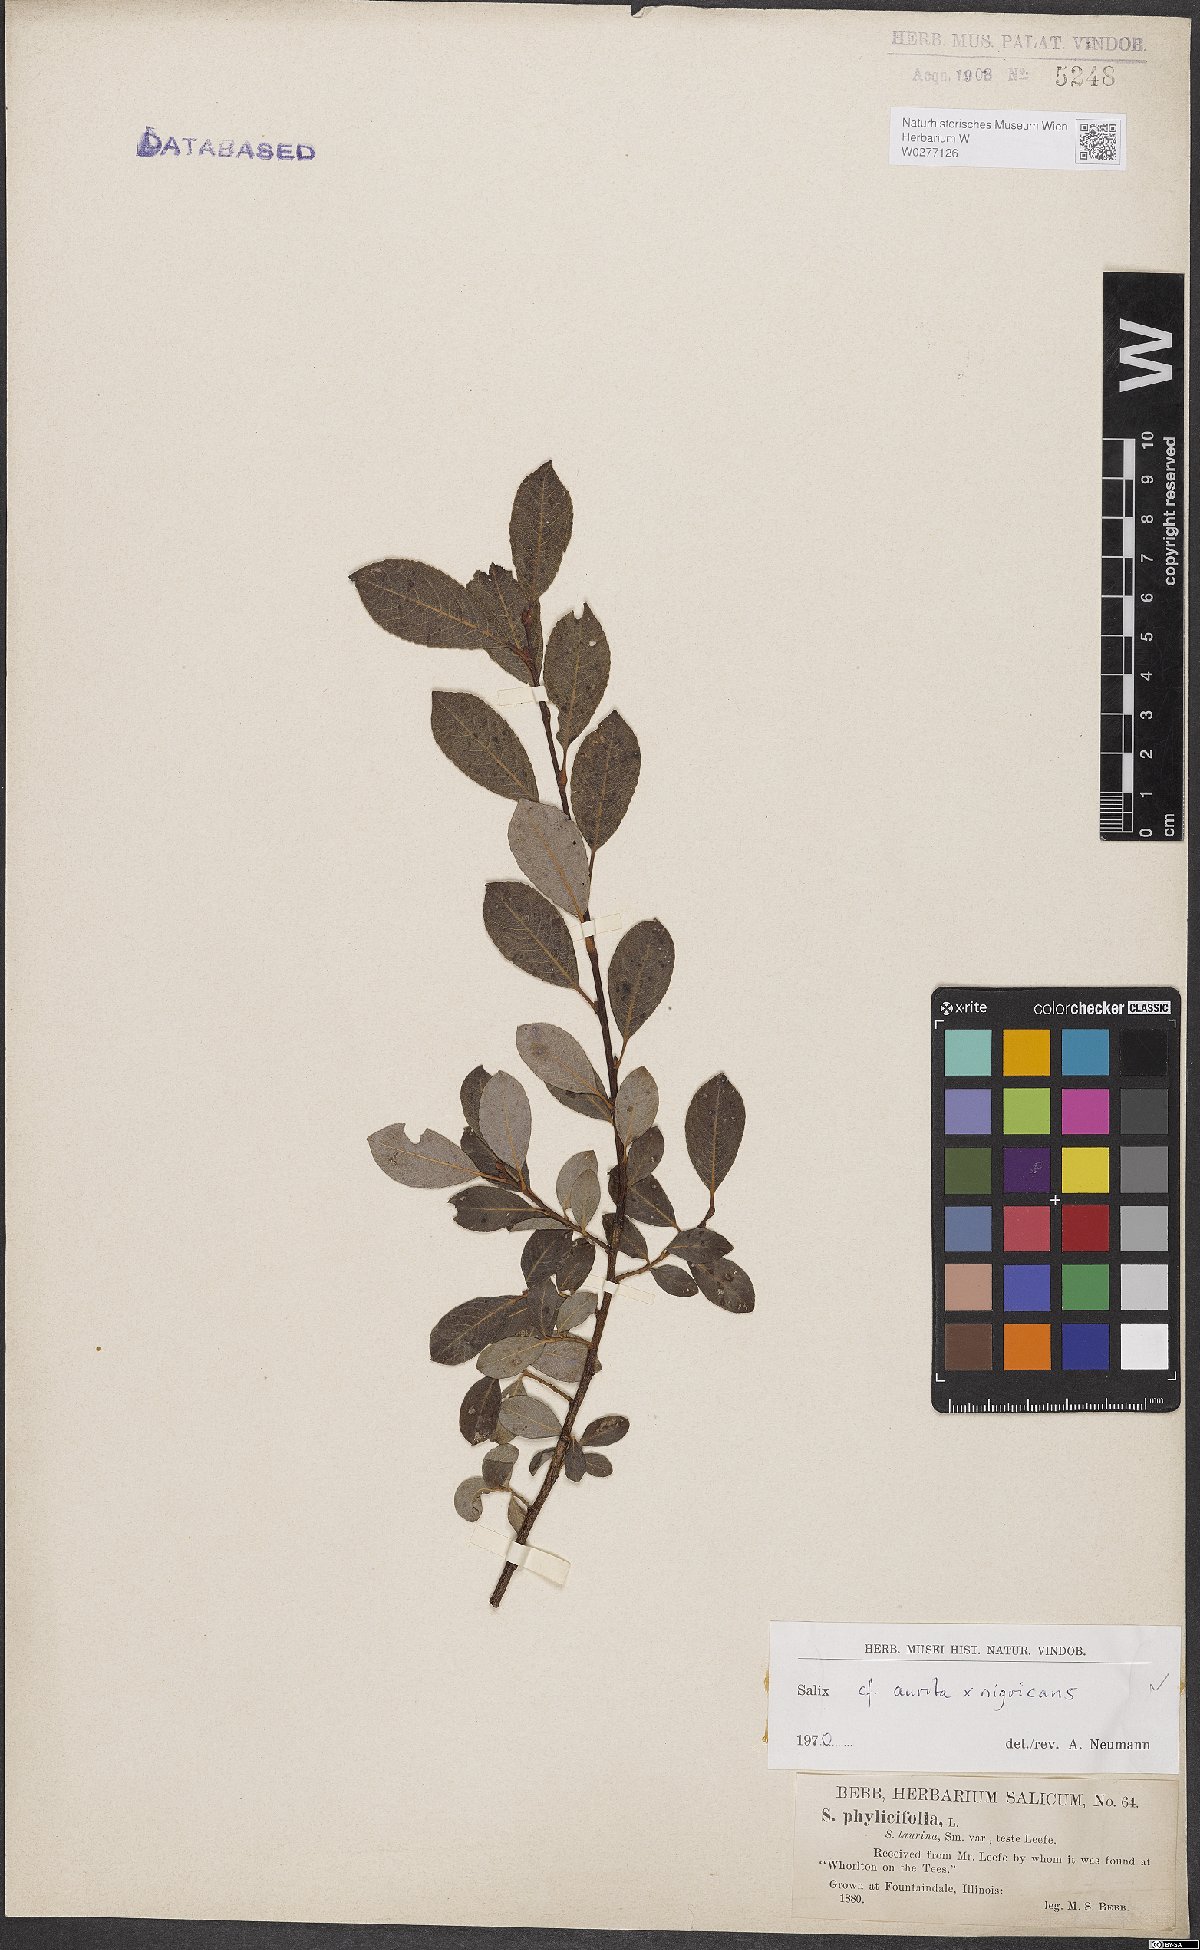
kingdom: Plantae
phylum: Tracheophyta
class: Magnoliopsida
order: Malpighiales
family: Salicaceae
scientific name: Salicaceae
